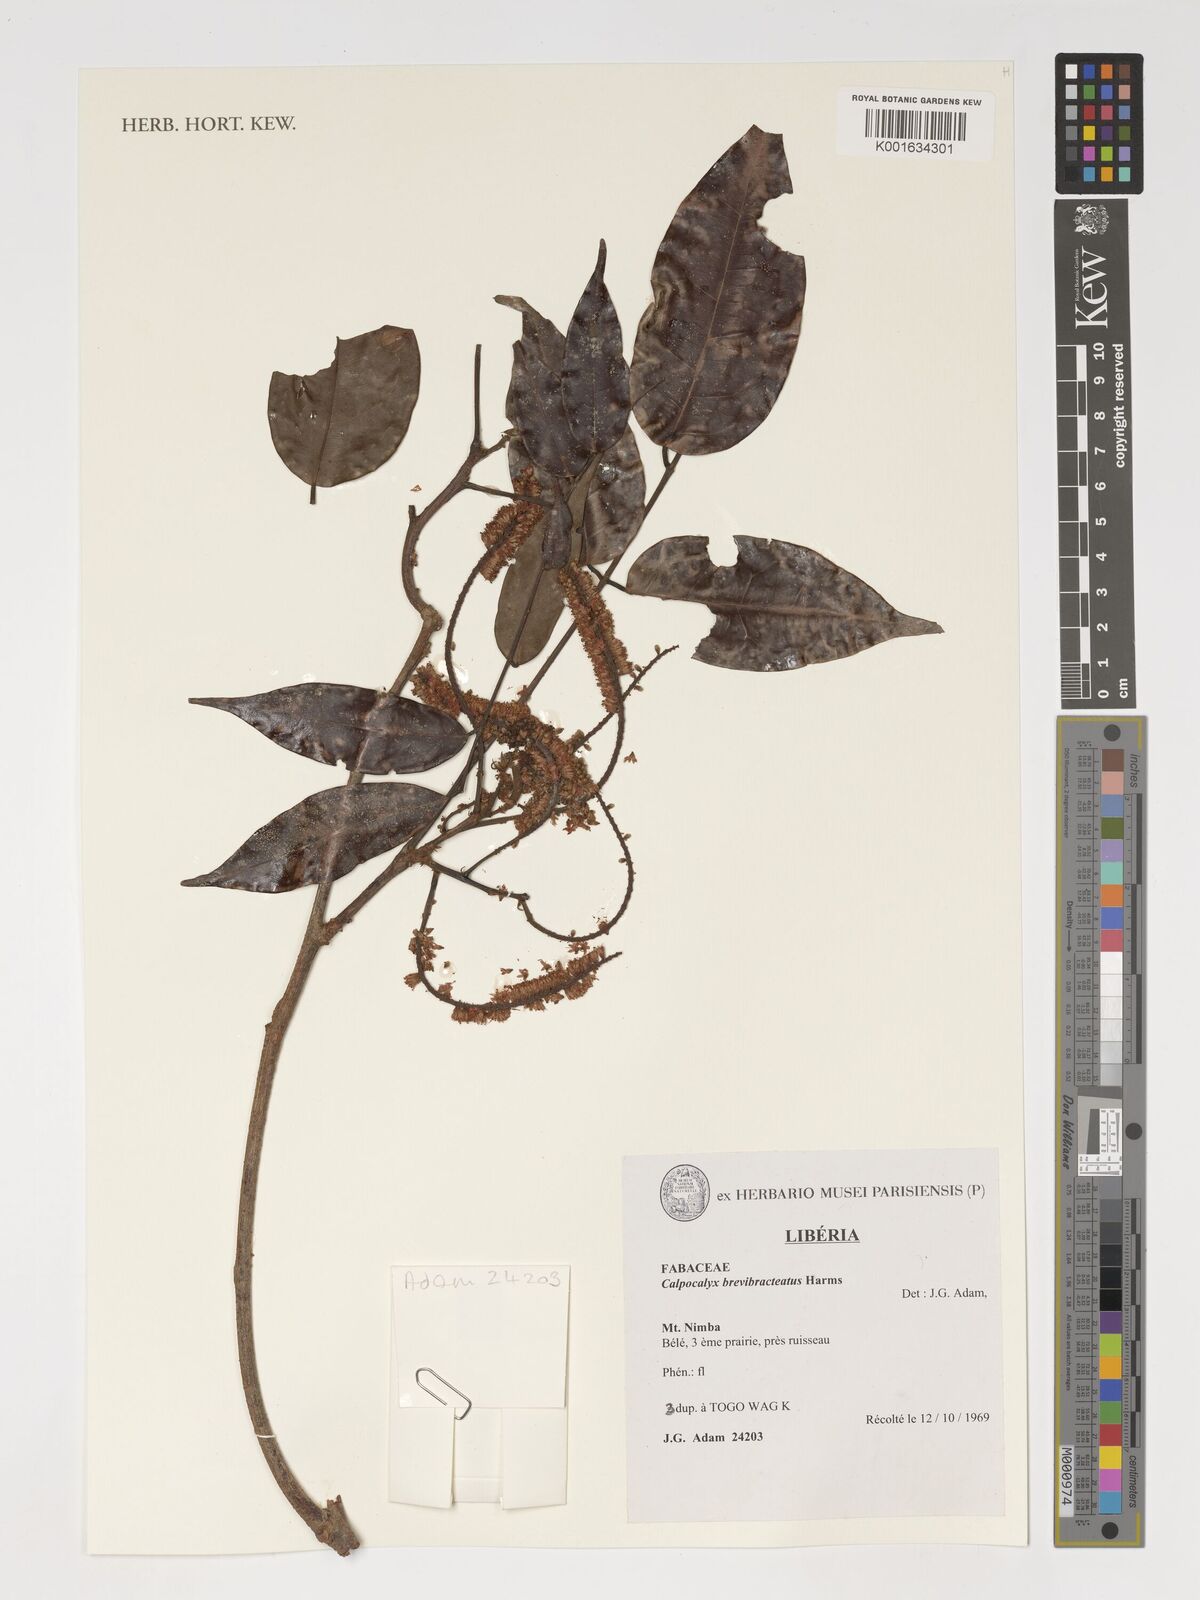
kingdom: Plantae
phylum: Tracheophyta
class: Magnoliopsida
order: Fabales
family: Fabaceae
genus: Calpocalyx
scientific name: Calpocalyx brevibracteatus
